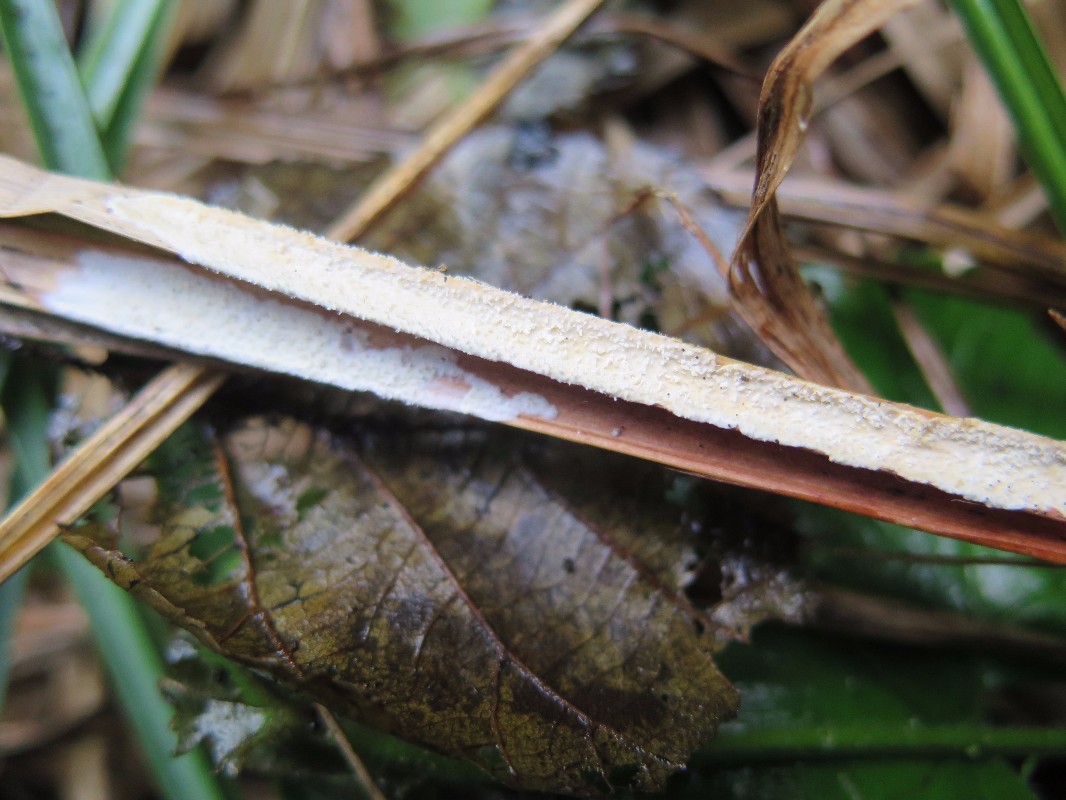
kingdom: Fungi
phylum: Basidiomycota
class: Agaricomycetes
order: Polyporales
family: Polyporaceae
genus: Epithele
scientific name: Epithele typhae
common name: starpig
